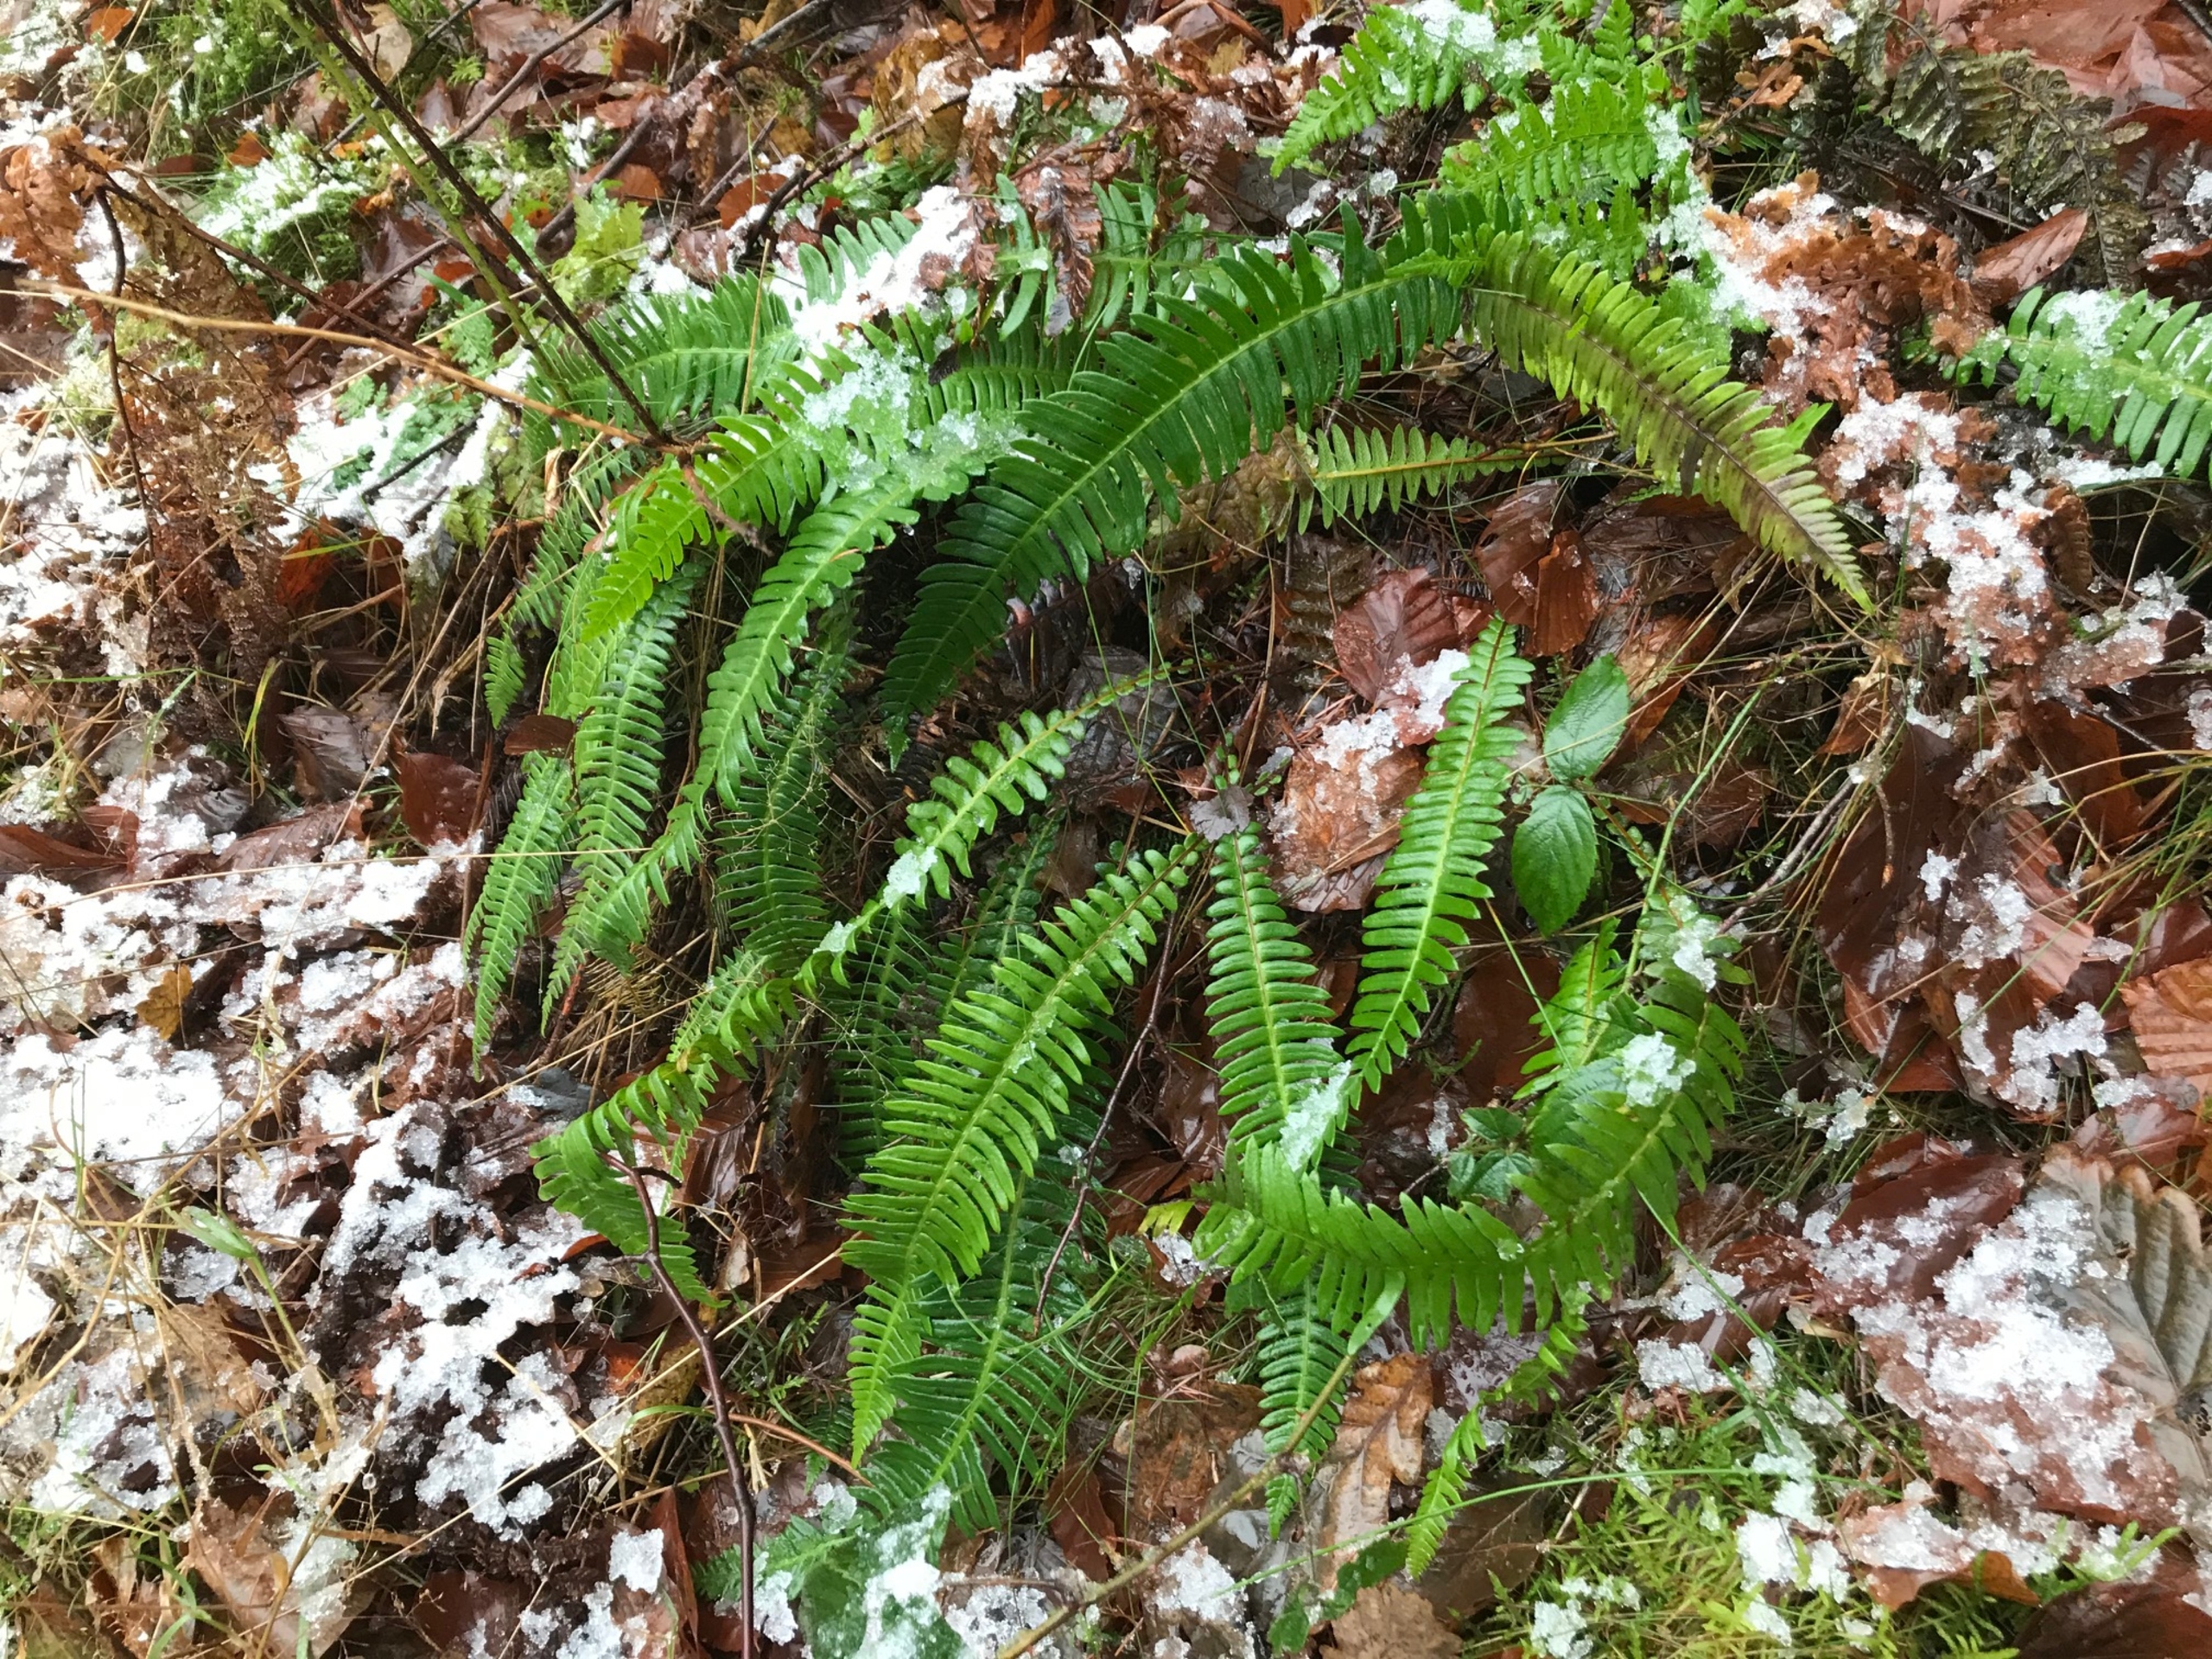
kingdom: Plantae
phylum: Tracheophyta
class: Polypodiopsida
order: Polypodiales
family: Blechnaceae
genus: Struthiopteris
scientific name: Struthiopteris spicant
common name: Kambregne
